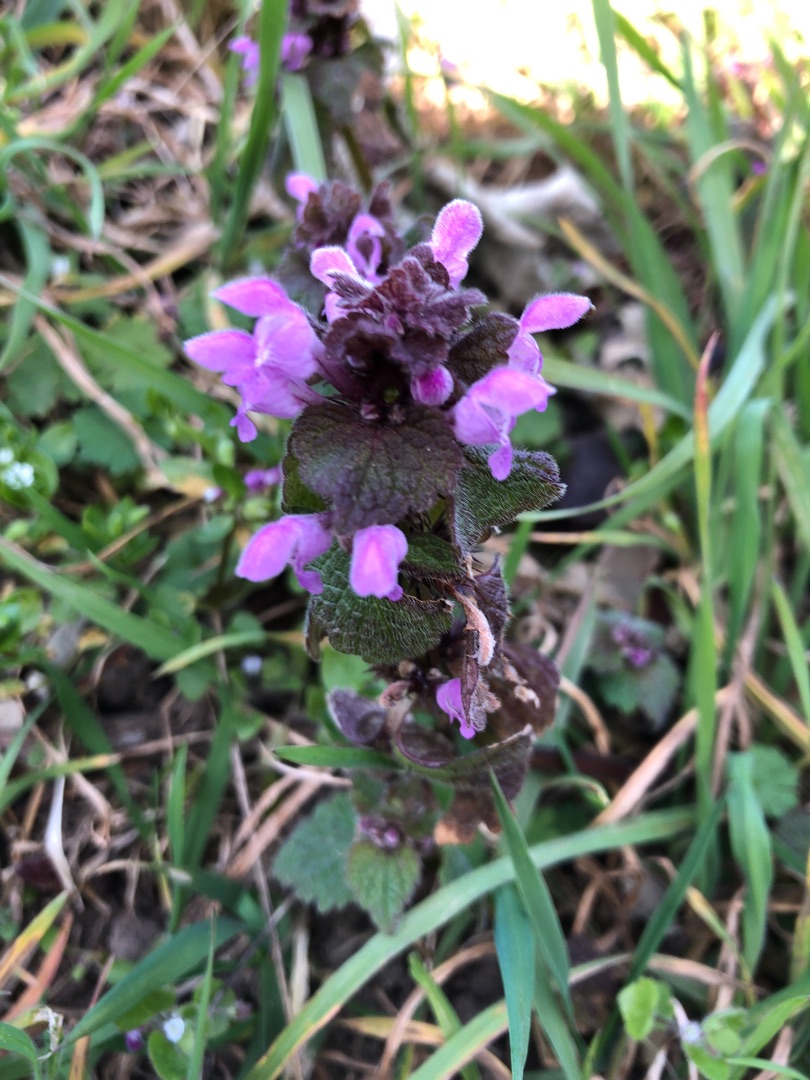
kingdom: Plantae
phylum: Tracheophyta
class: Magnoliopsida
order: Lamiales
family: Lamiaceae
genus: Lamium
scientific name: Lamium purpureum
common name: Rød tvetand
